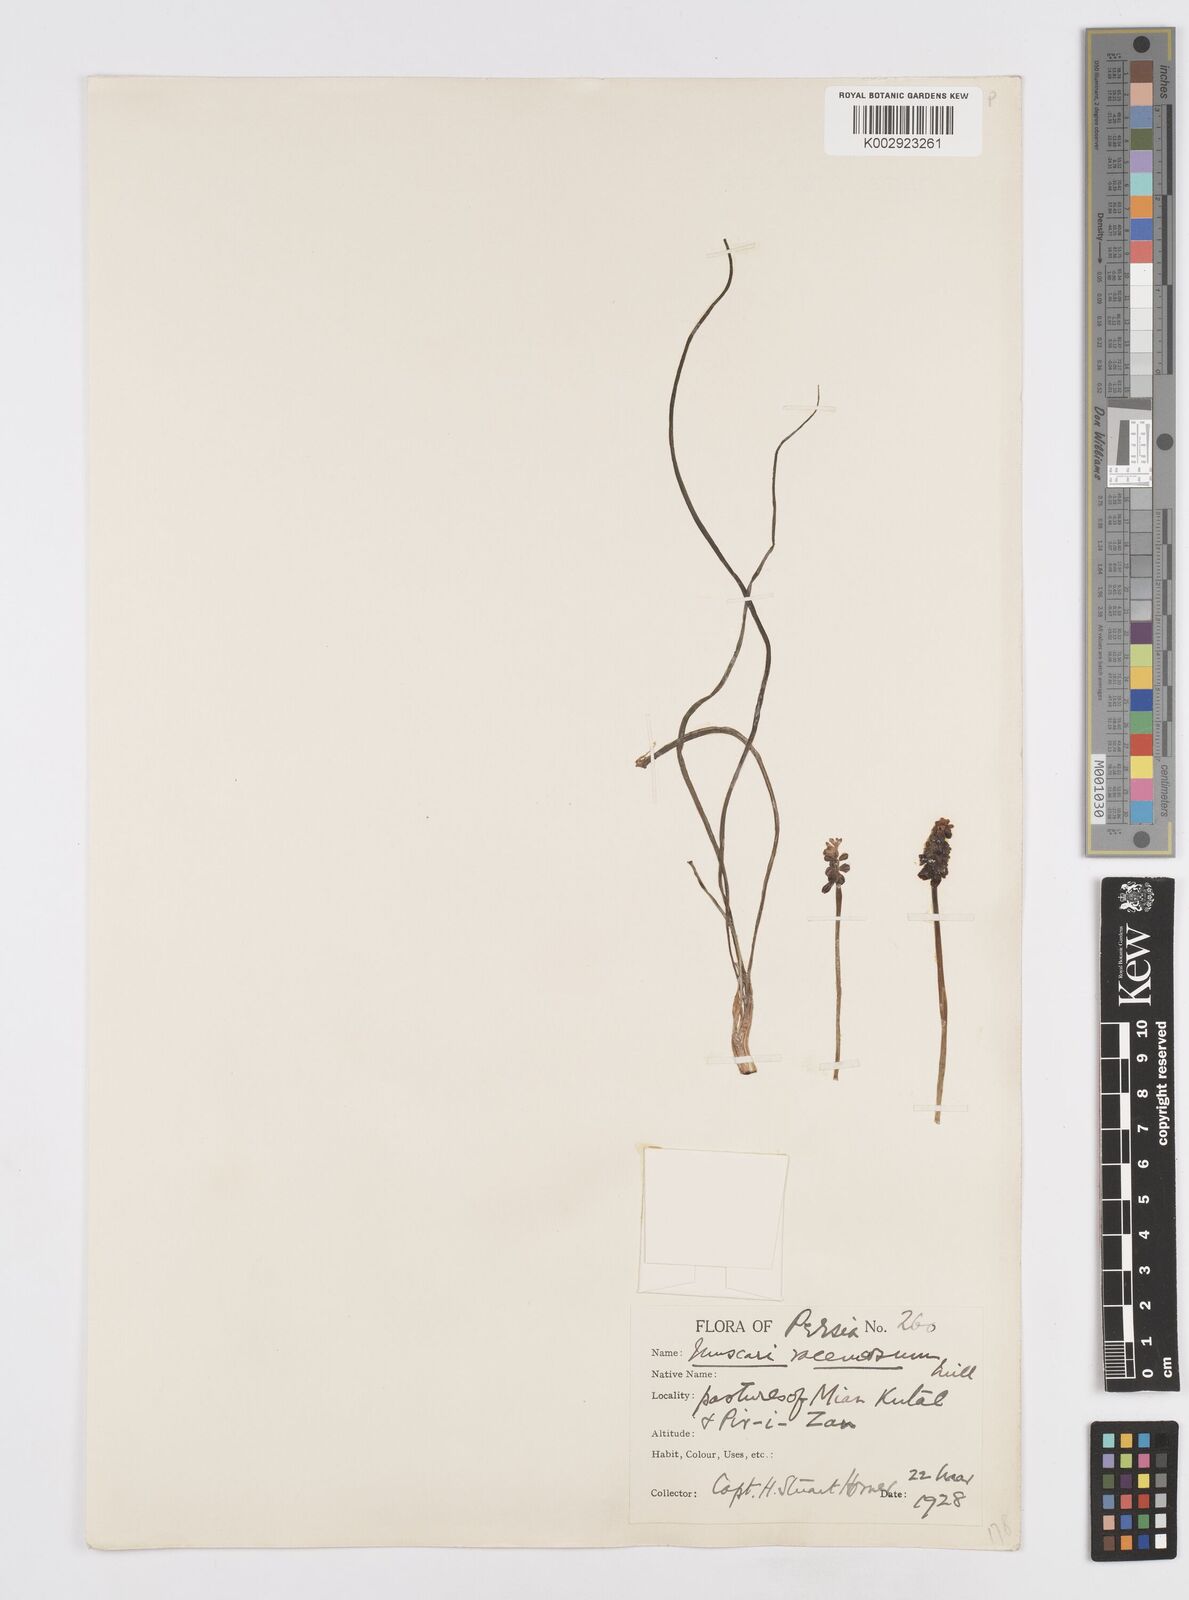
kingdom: Plantae
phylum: Tracheophyta
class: Liliopsida
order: Asparagales
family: Asparagaceae
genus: Muscari
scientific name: Muscari neglectum
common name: Grape-hyacinth
